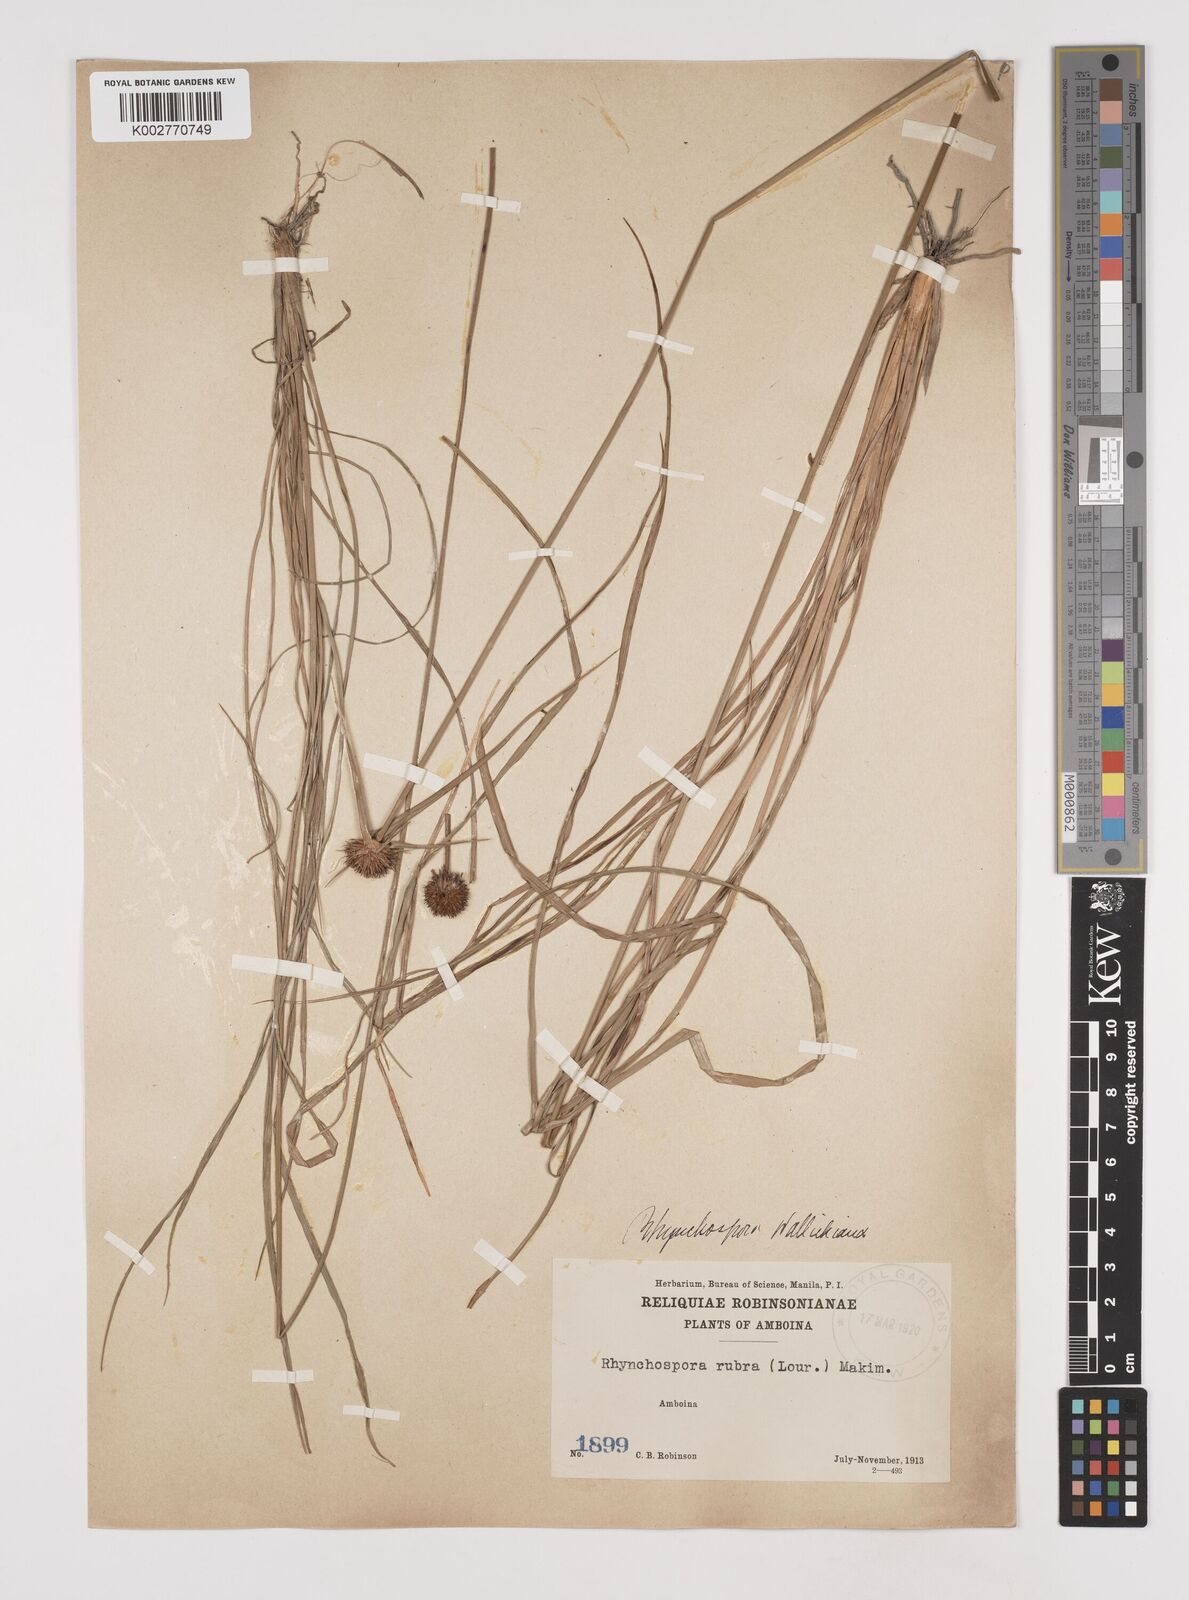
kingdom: Plantae
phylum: Tracheophyta
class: Liliopsida
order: Poales
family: Cyperaceae
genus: Rhynchospora
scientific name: Rhynchospora rubra
